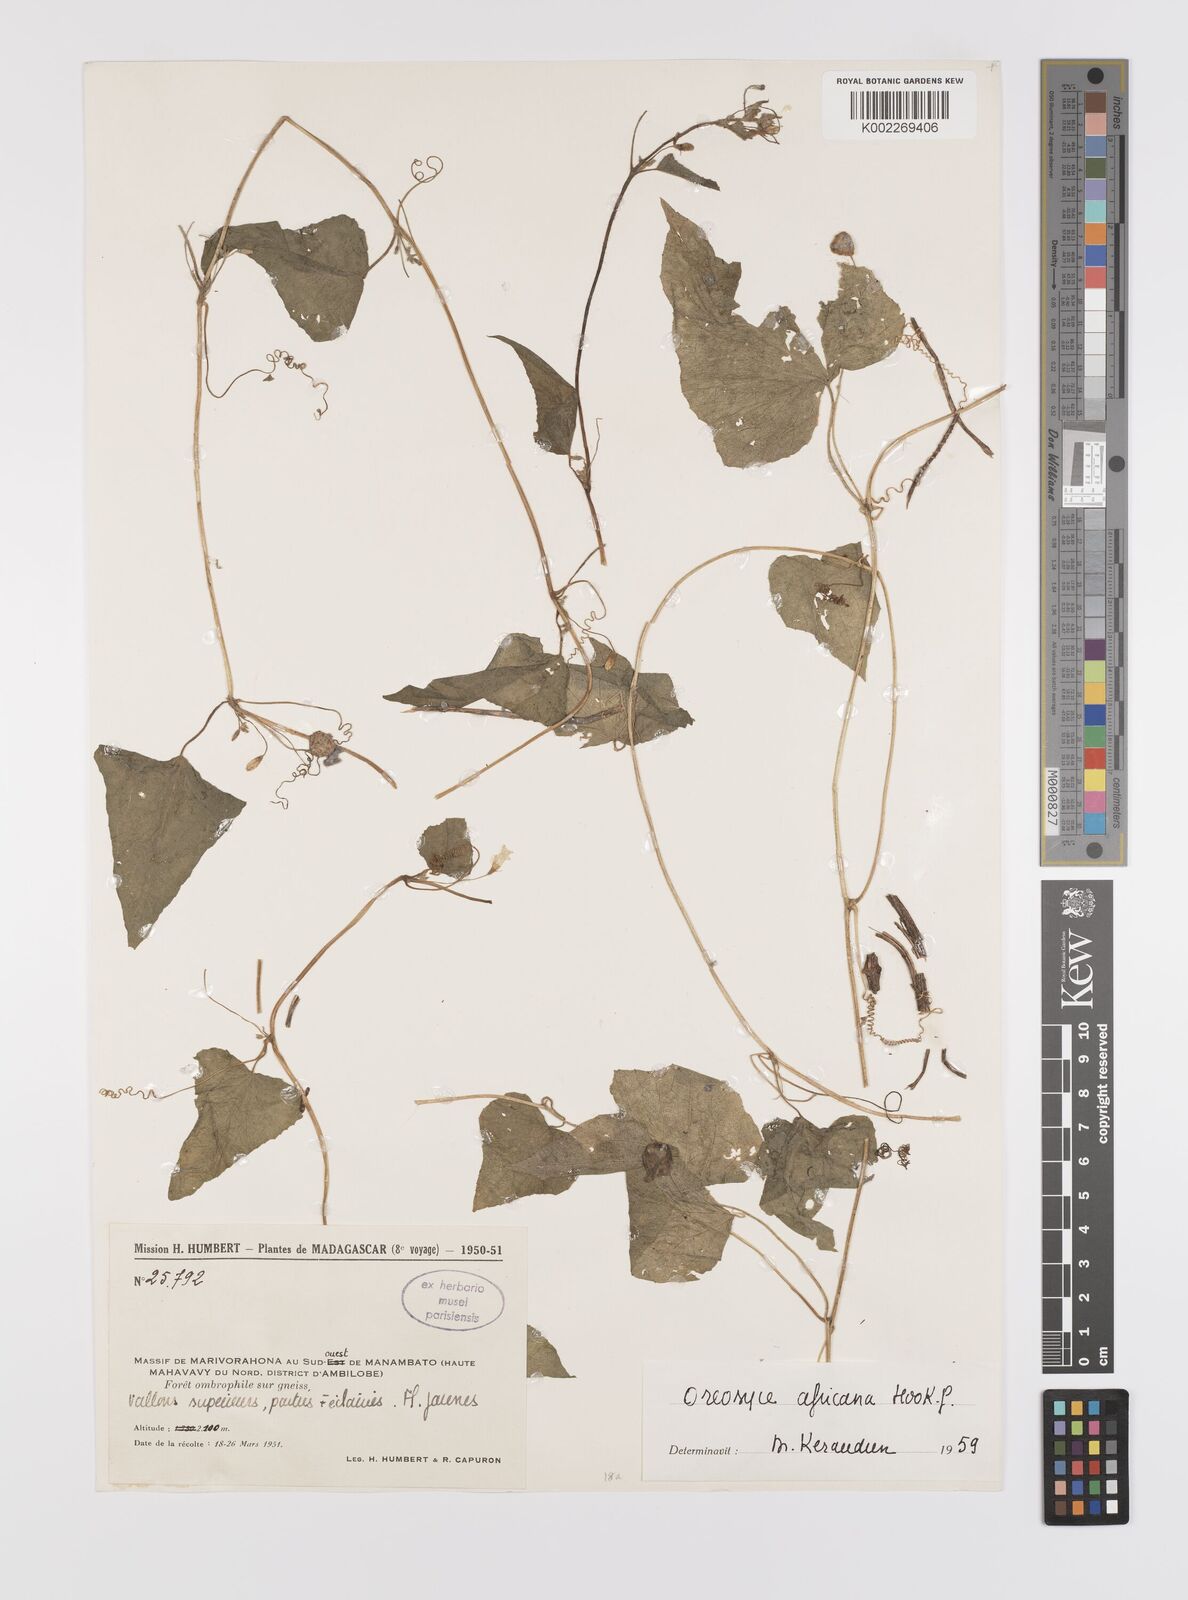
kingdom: Plantae
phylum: Tracheophyta
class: Magnoliopsida
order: Cucurbitales
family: Cucurbitaceae
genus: Cucumis
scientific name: Cucumis oreosyce
